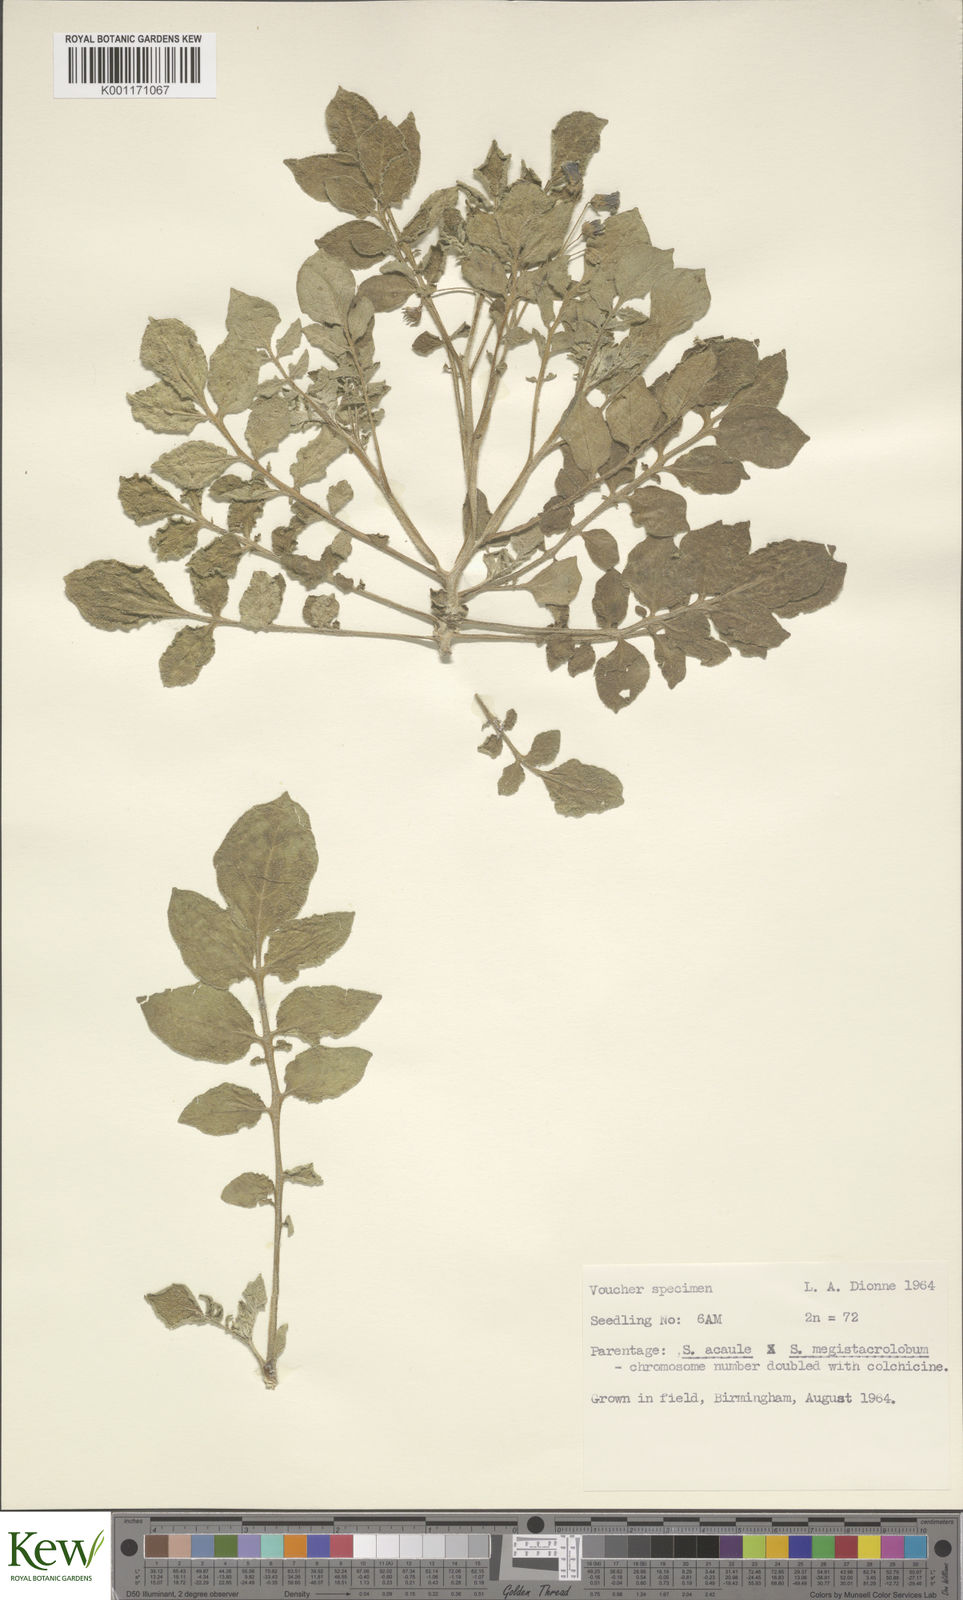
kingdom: Plantae
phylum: Tracheophyta
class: Magnoliopsida
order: Solanales
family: Solanaceae
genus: Solanum
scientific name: Solanum acaule
